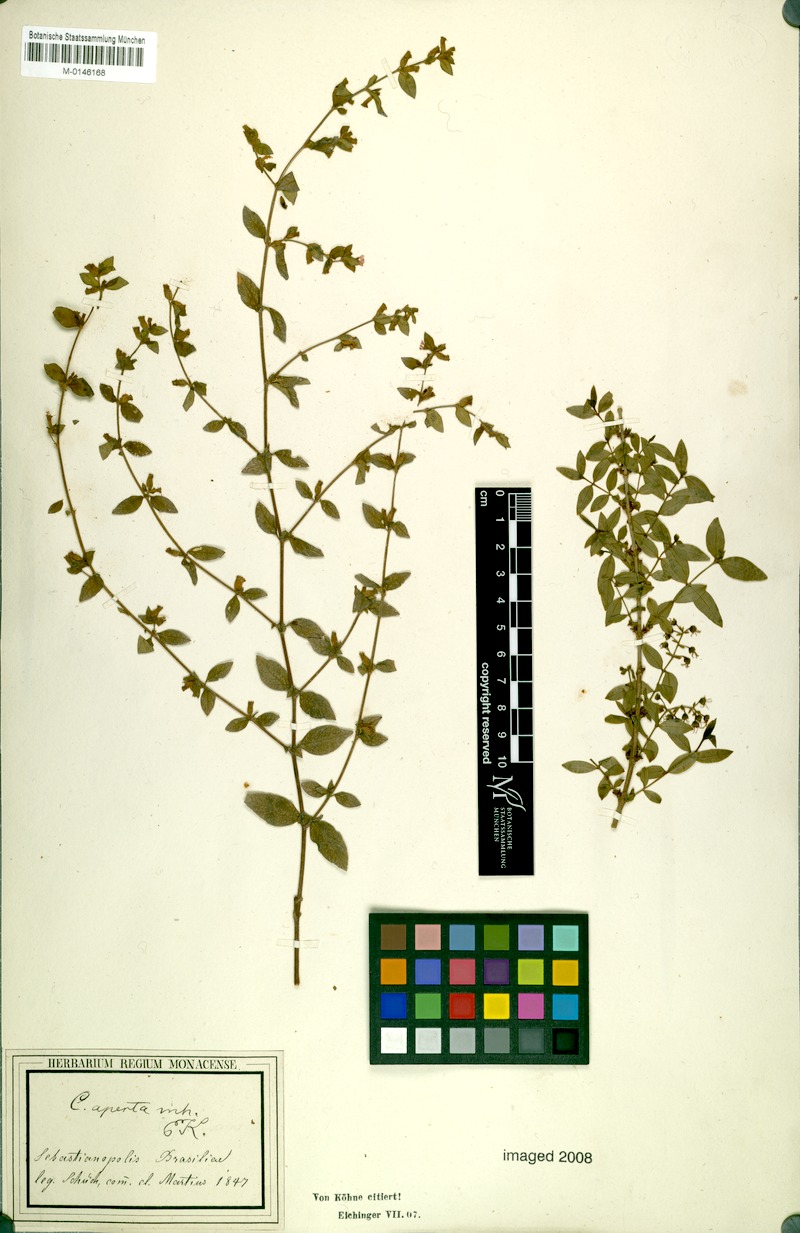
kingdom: Plantae
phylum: Tracheophyta
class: Magnoliopsida
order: Myrtales
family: Lythraceae
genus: Cuphea
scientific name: Cuphea aperta
